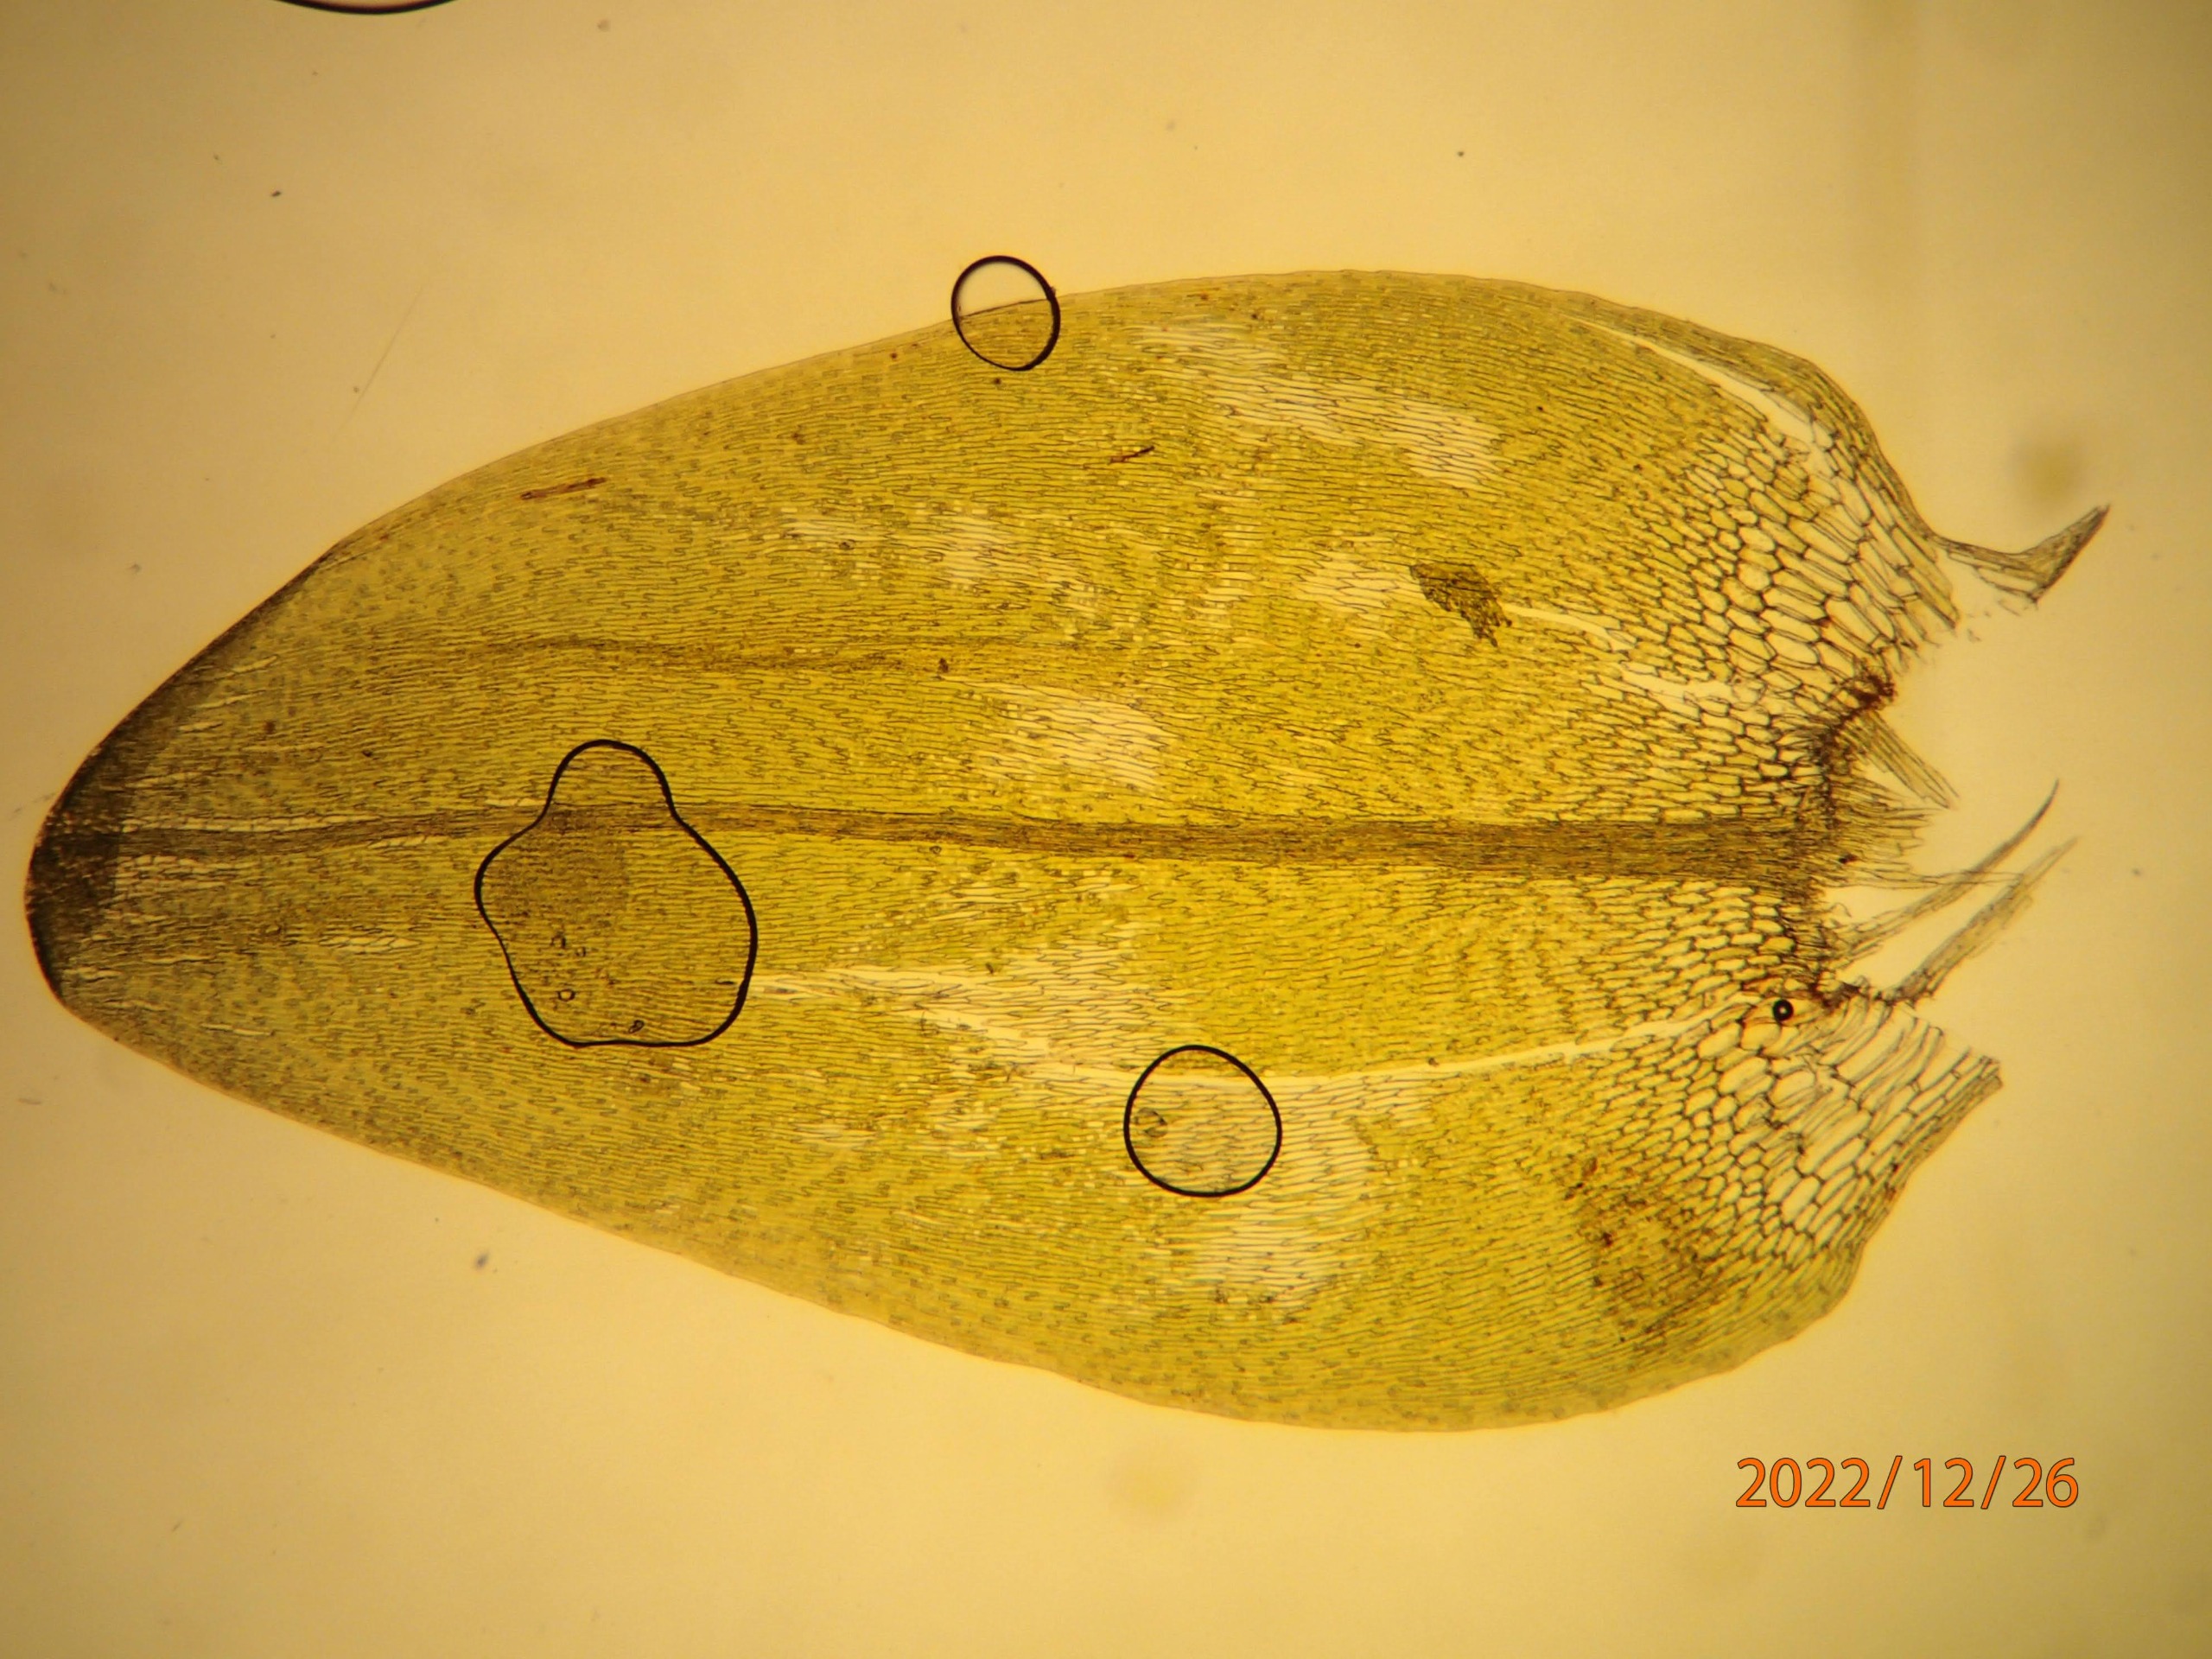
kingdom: Plantae
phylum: Bryophyta
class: Bryopsida
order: Hypnales
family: Calliergonaceae
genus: Calliergon
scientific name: Calliergon cordifolium
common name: Almindelig skebladsmos
